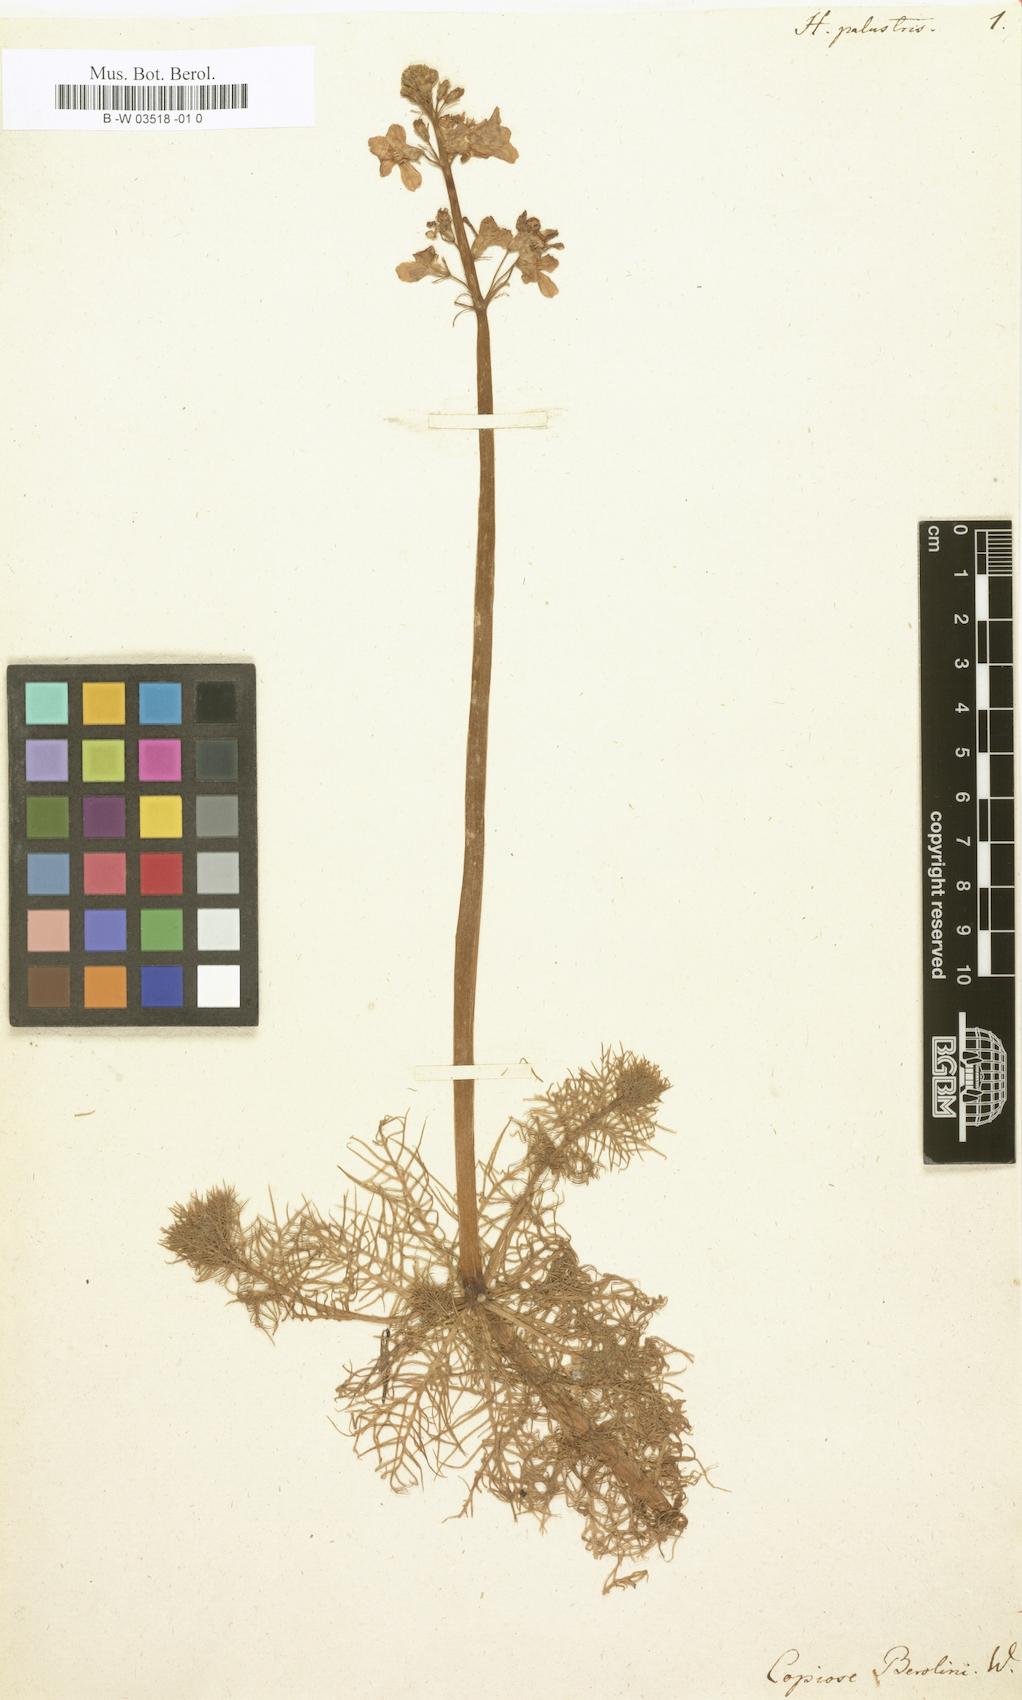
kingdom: Plantae
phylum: Tracheophyta
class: Magnoliopsida
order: Ericales
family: Primulaceae
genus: Hottonia
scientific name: Hottonia palustris
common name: Water-violet
